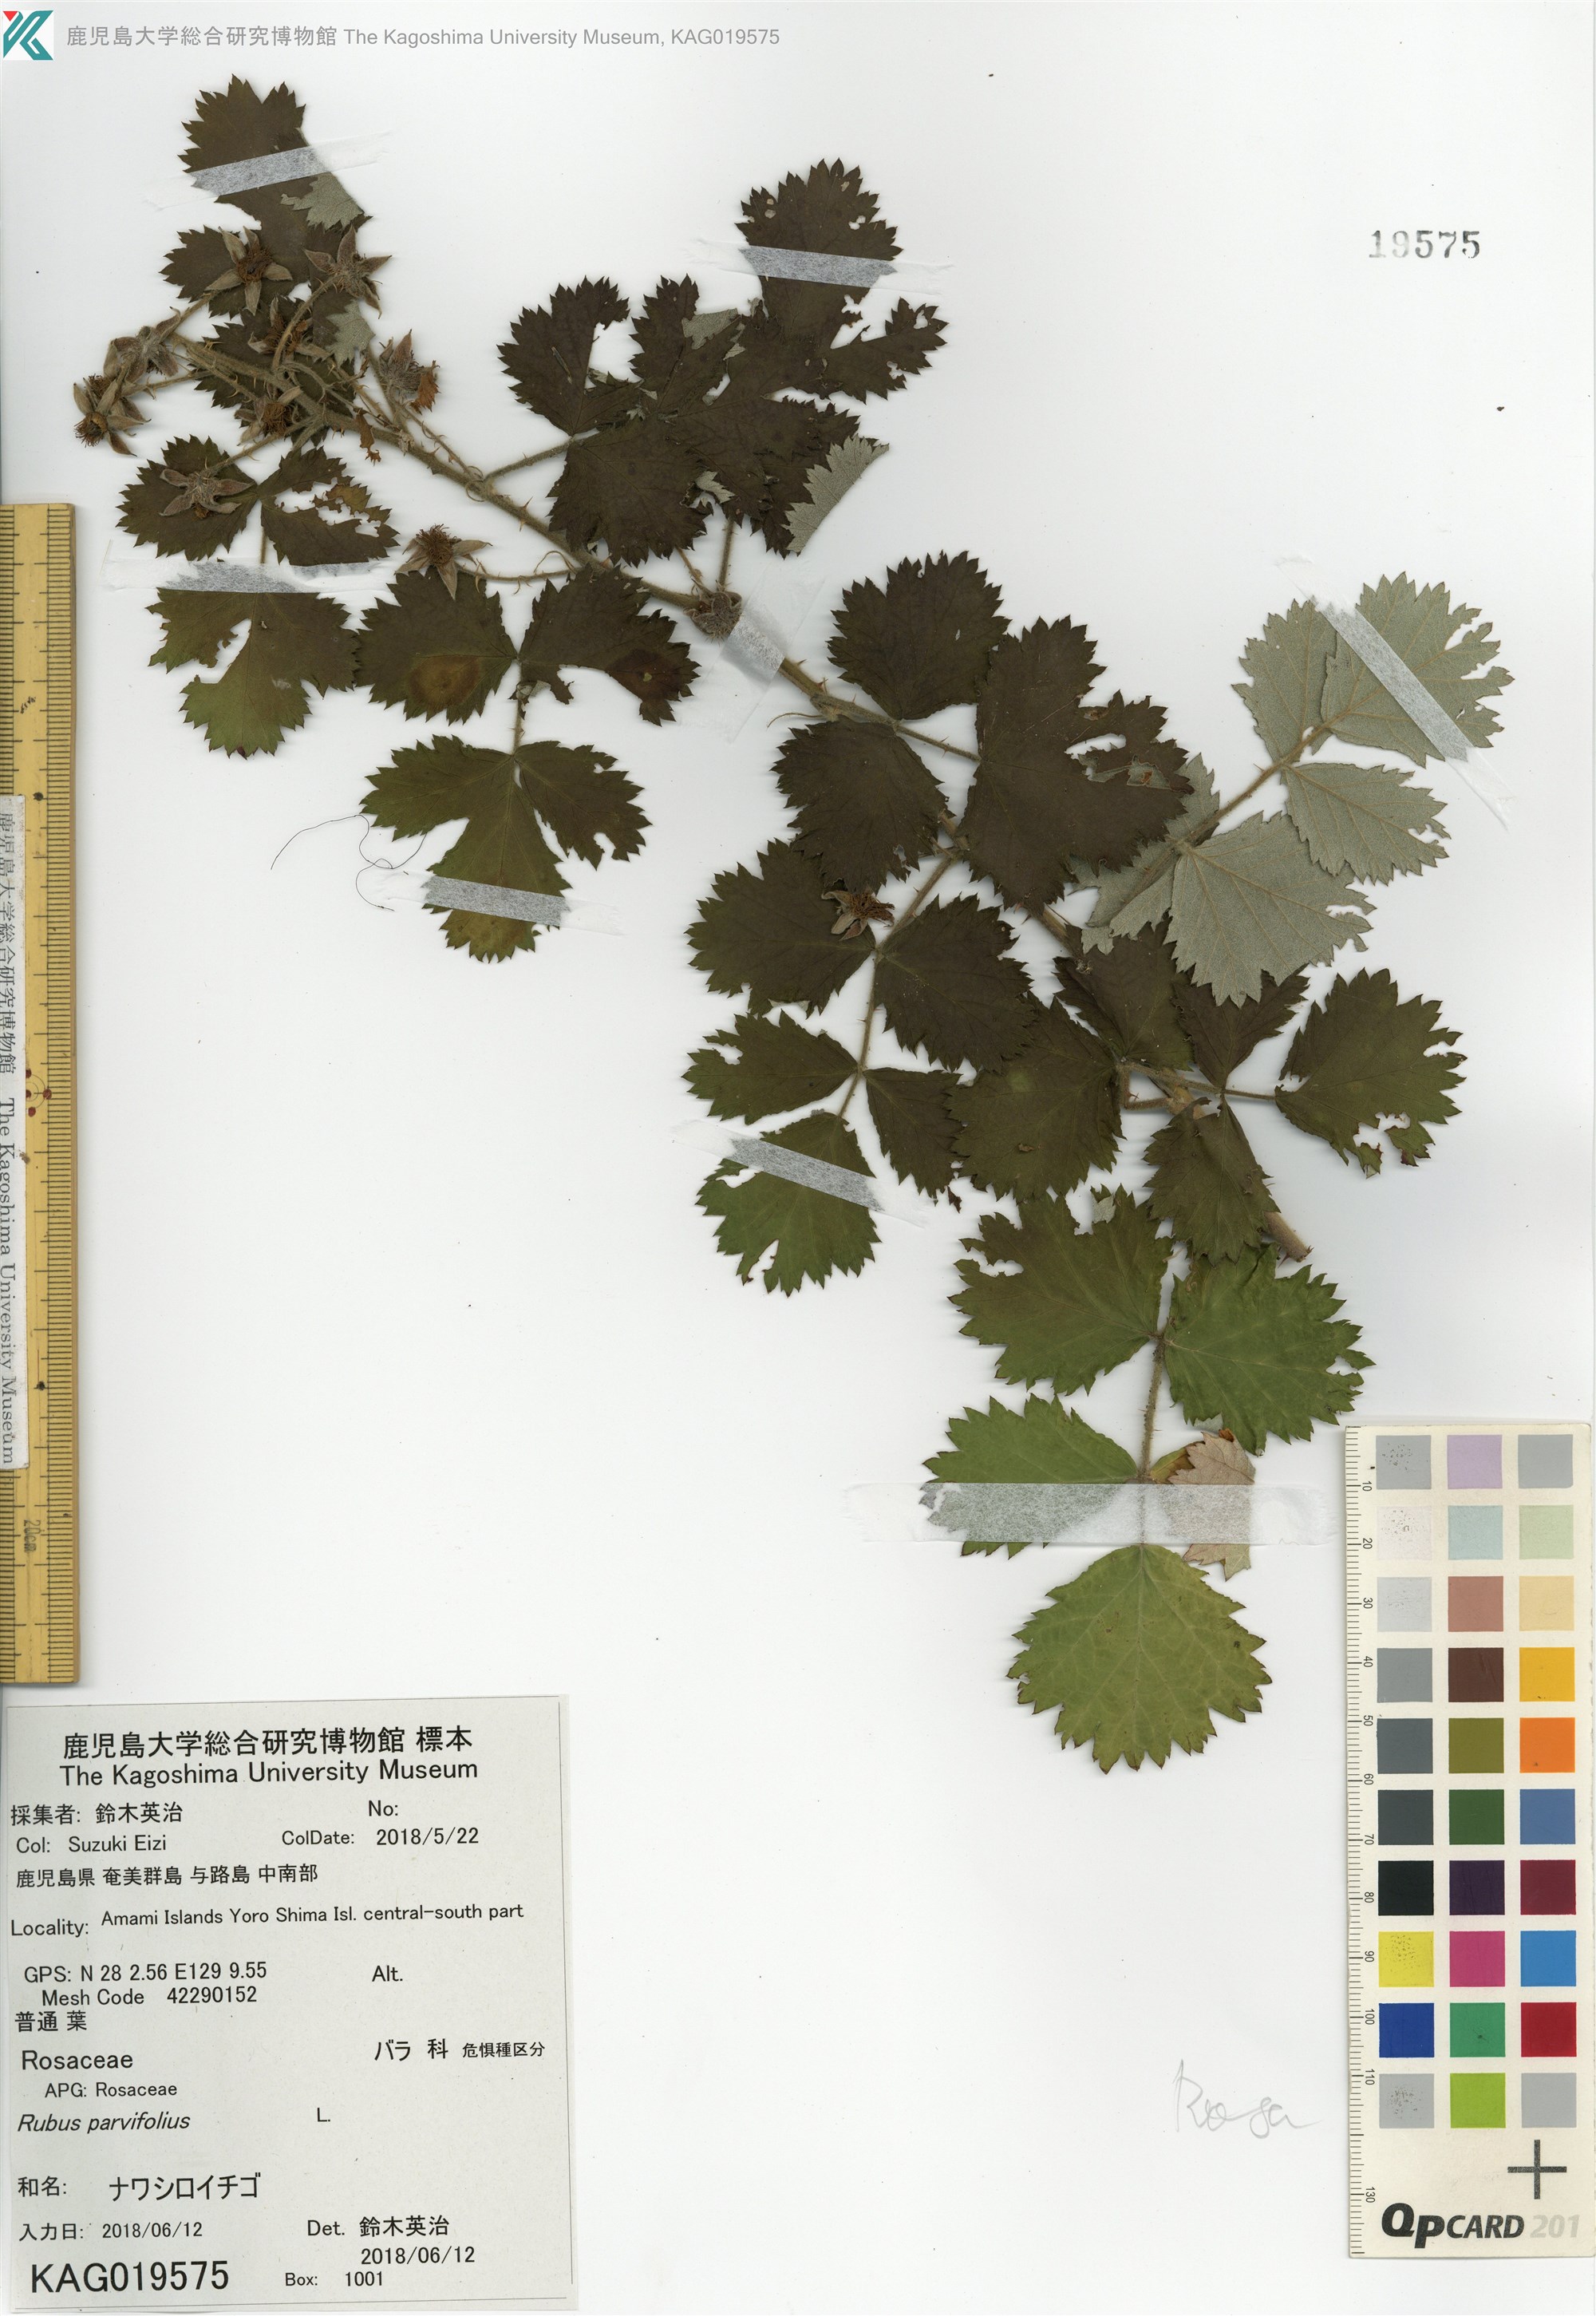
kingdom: Plantae
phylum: Tracheophyta
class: Magnoliopsida
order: Rosales
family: Rosaceae
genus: Rubus
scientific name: Rubus parvifolius
